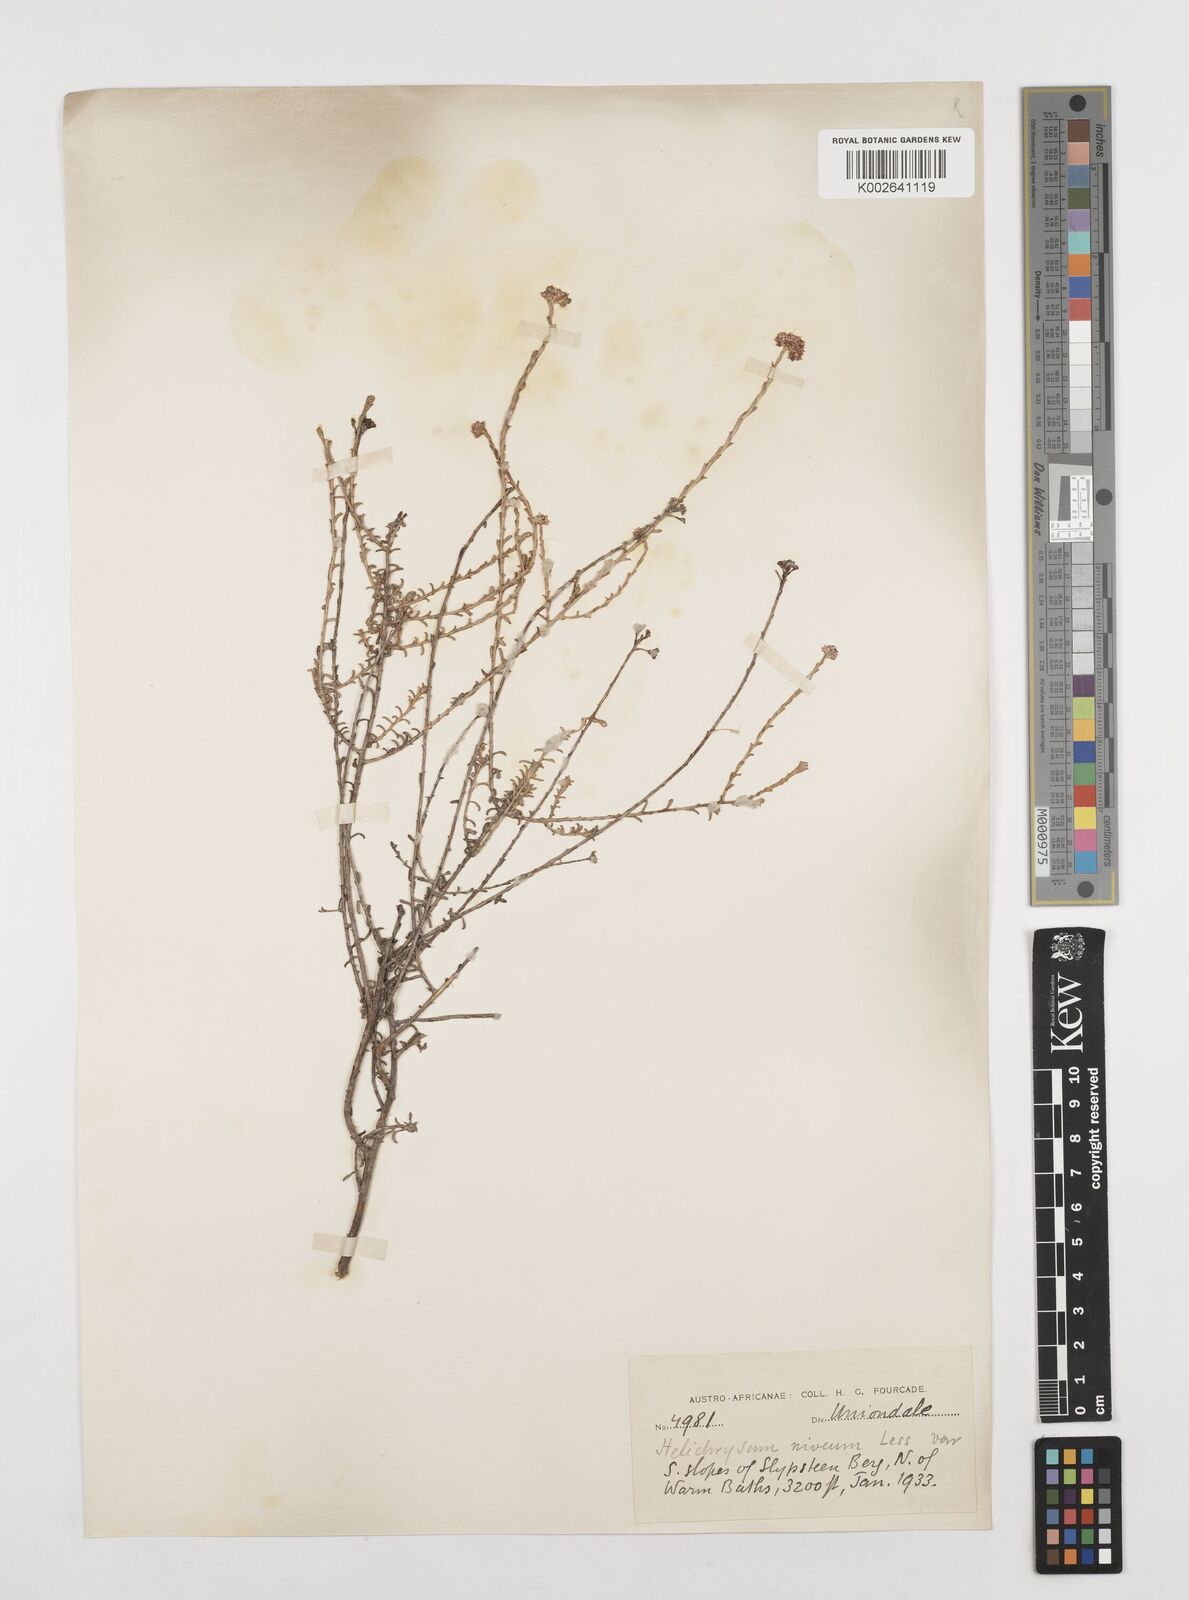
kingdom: Plantae
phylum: Tracheophyta
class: Magnoliopsida
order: Asterales
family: Asteraceae
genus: Helichrysum
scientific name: Helichrysum rutilans
